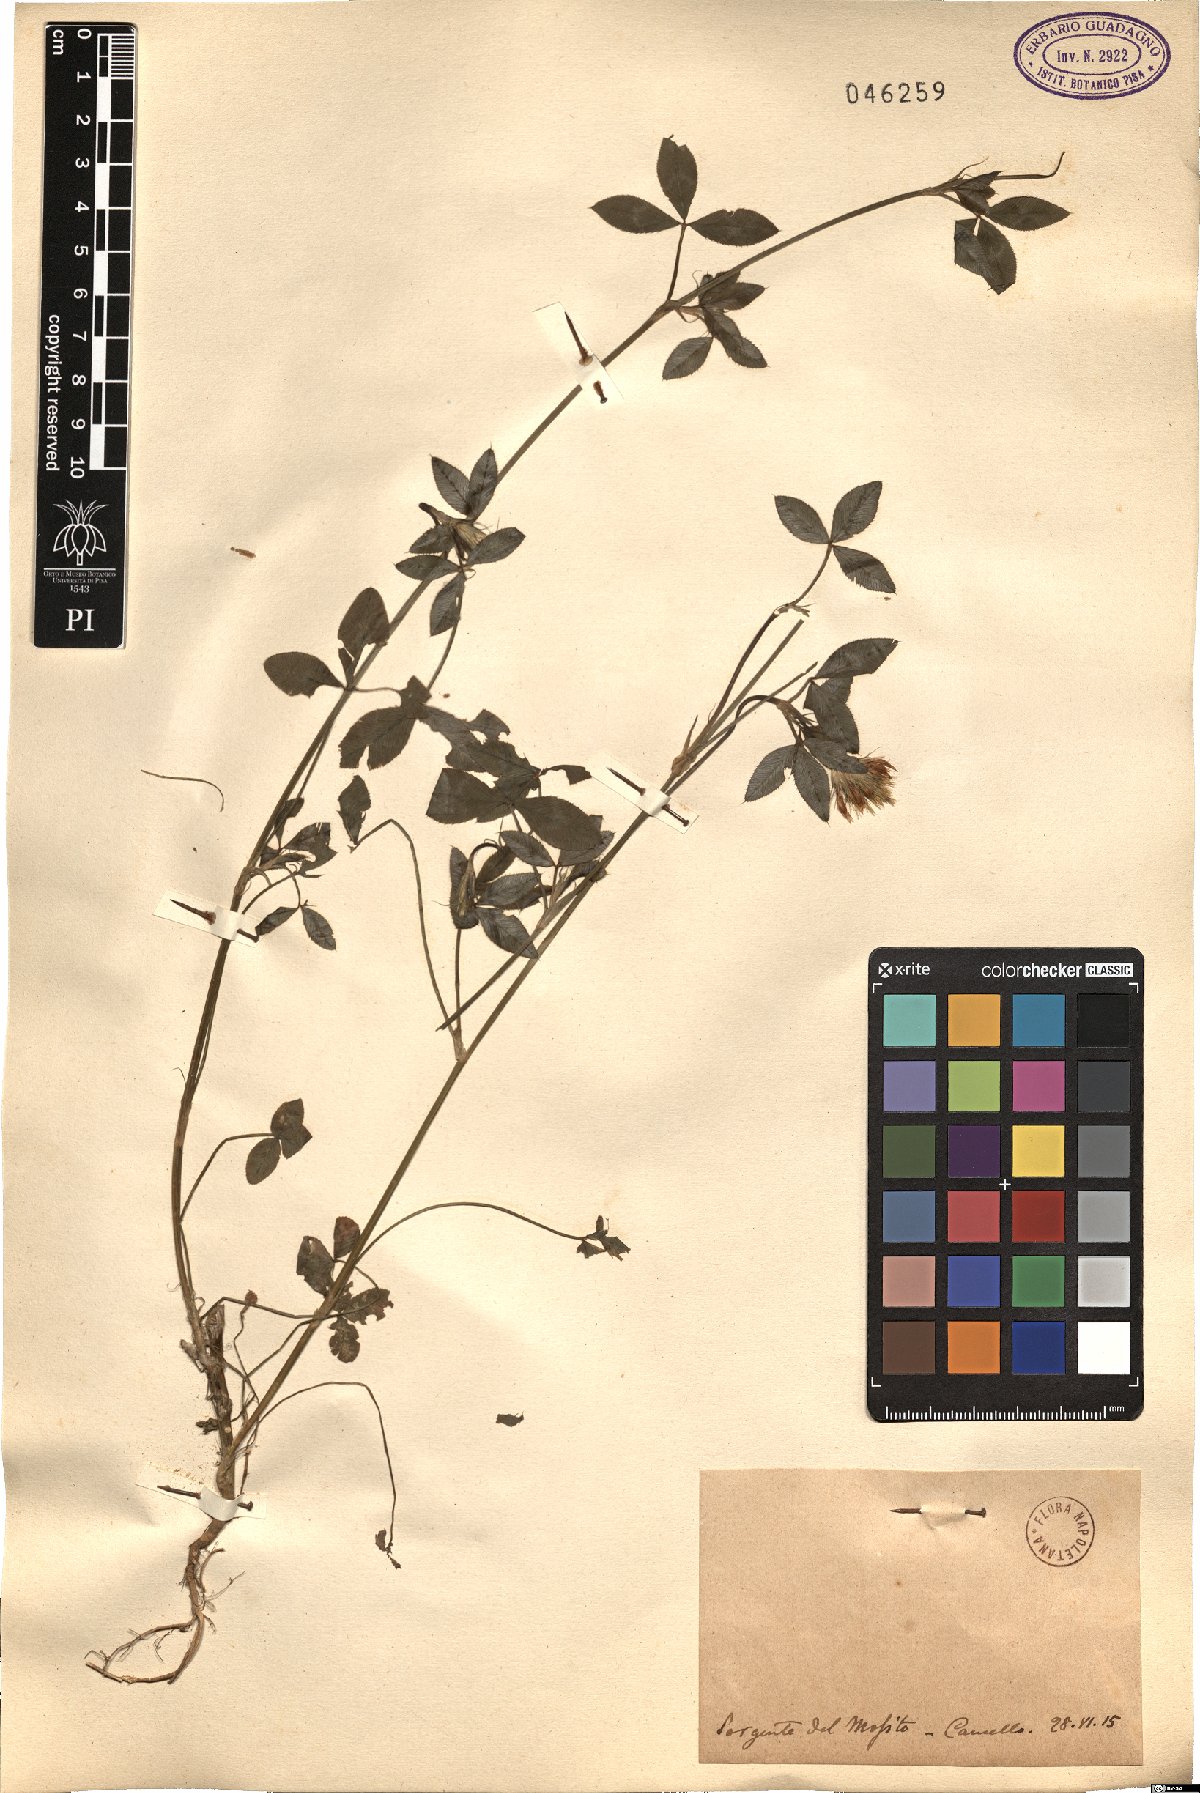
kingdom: Plantae
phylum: Tracheophyta
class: Magnoliopsida
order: Fabales
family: Fabaceae
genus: Trifolium
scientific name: Trifolium
